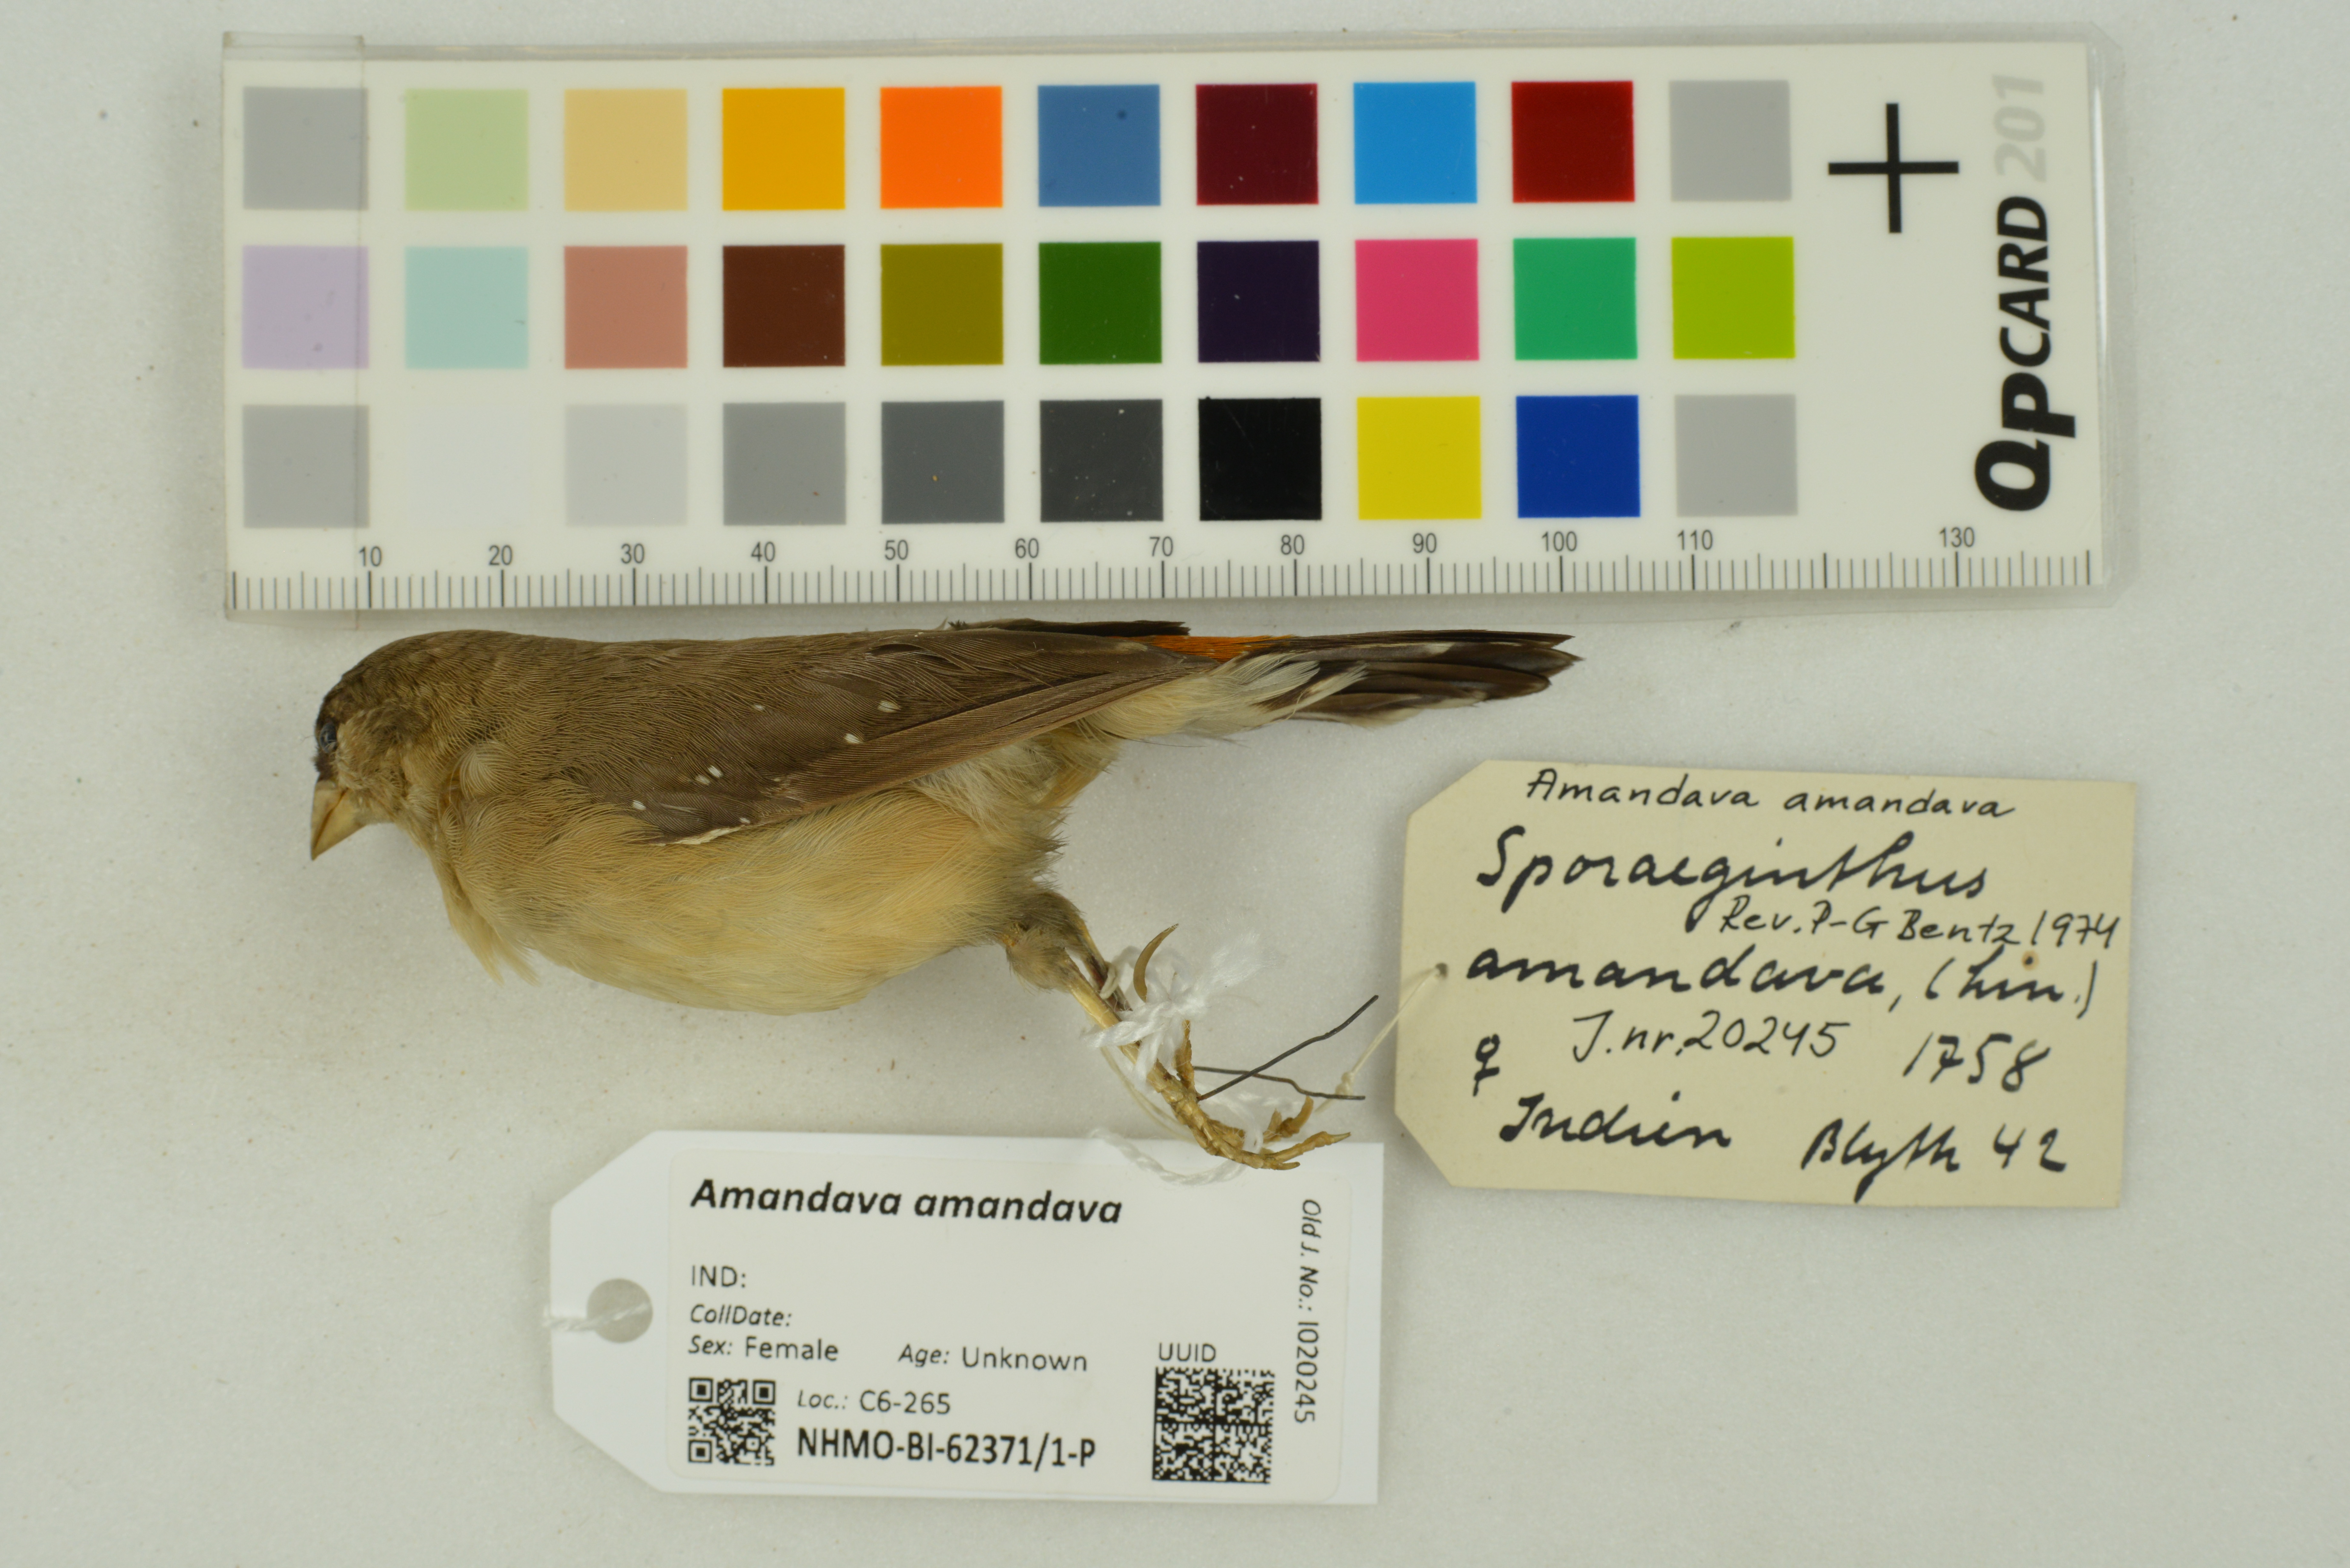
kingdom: Animalia
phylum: Chordata
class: Aves
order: Passeriformes
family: Estrildidae
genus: Amandava
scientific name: Amandava amandava
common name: Red avadavat
